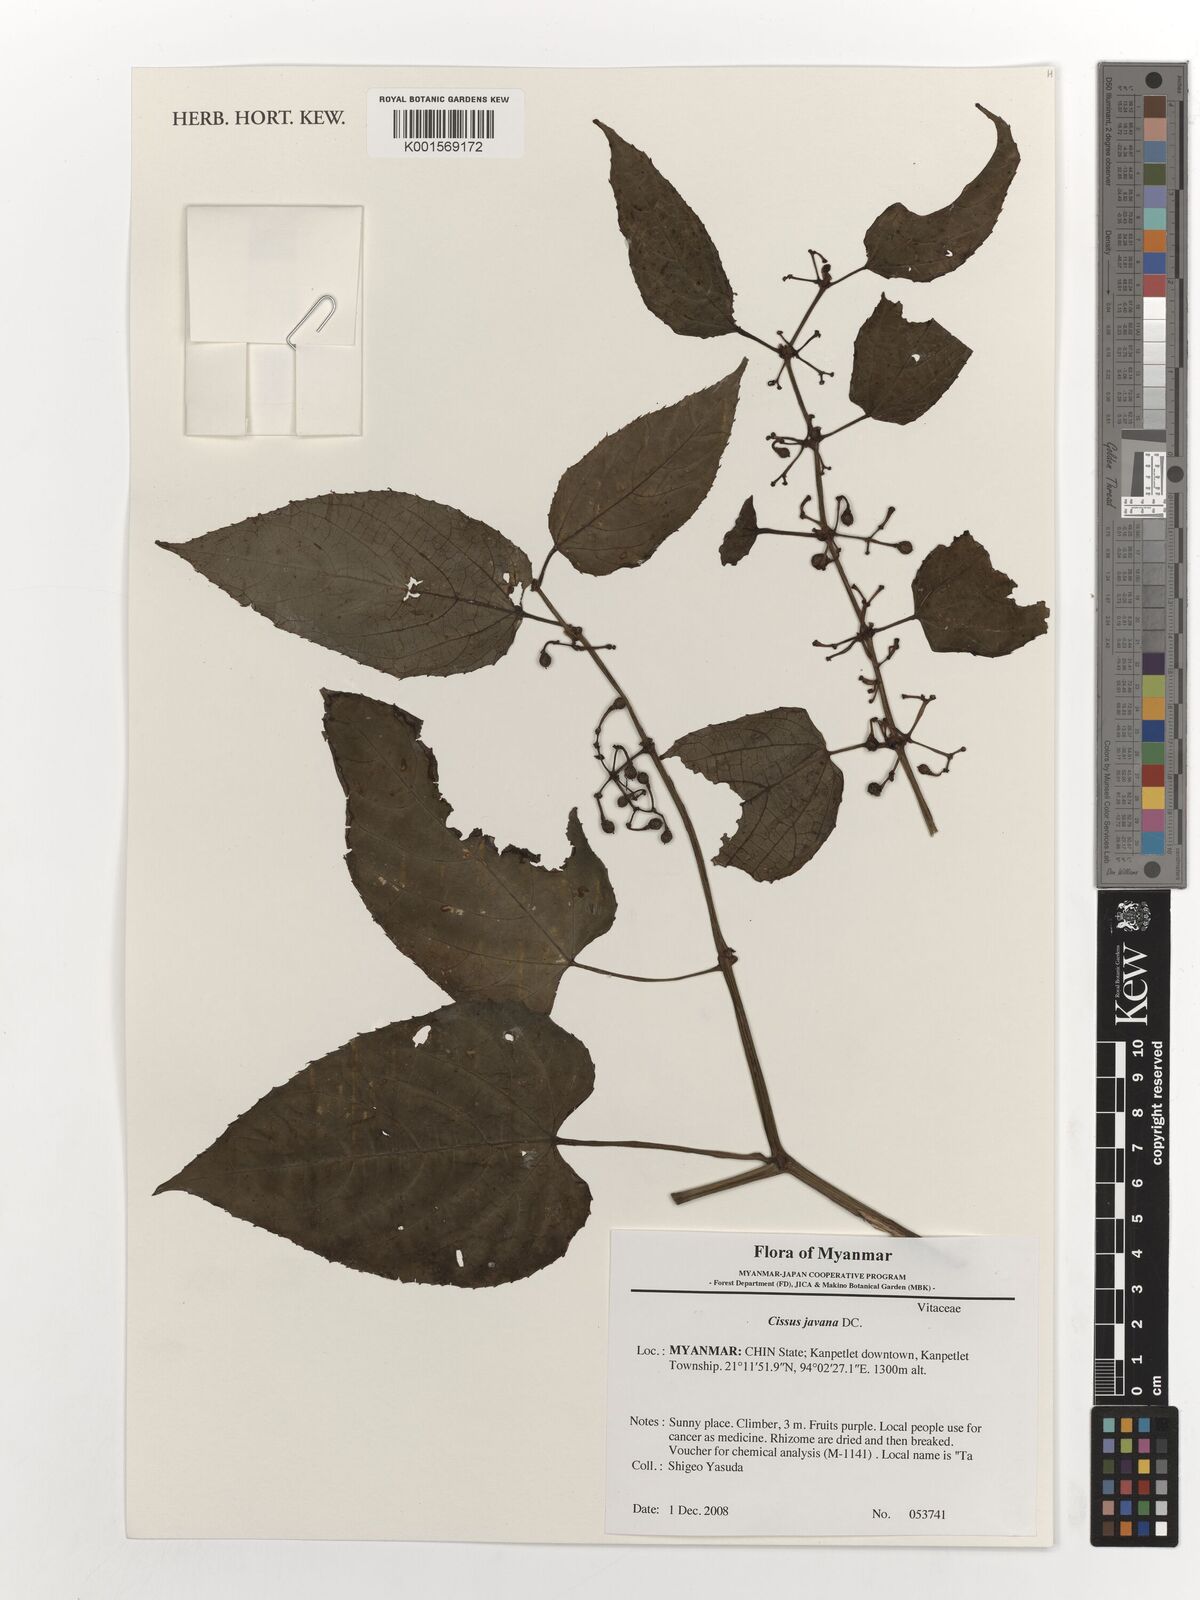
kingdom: Plantae
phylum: Tracheophyta
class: Magnoliopsida
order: Vitales
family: Vitaceae
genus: Cissus
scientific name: Cissus discolor
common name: Climbing-begonia
